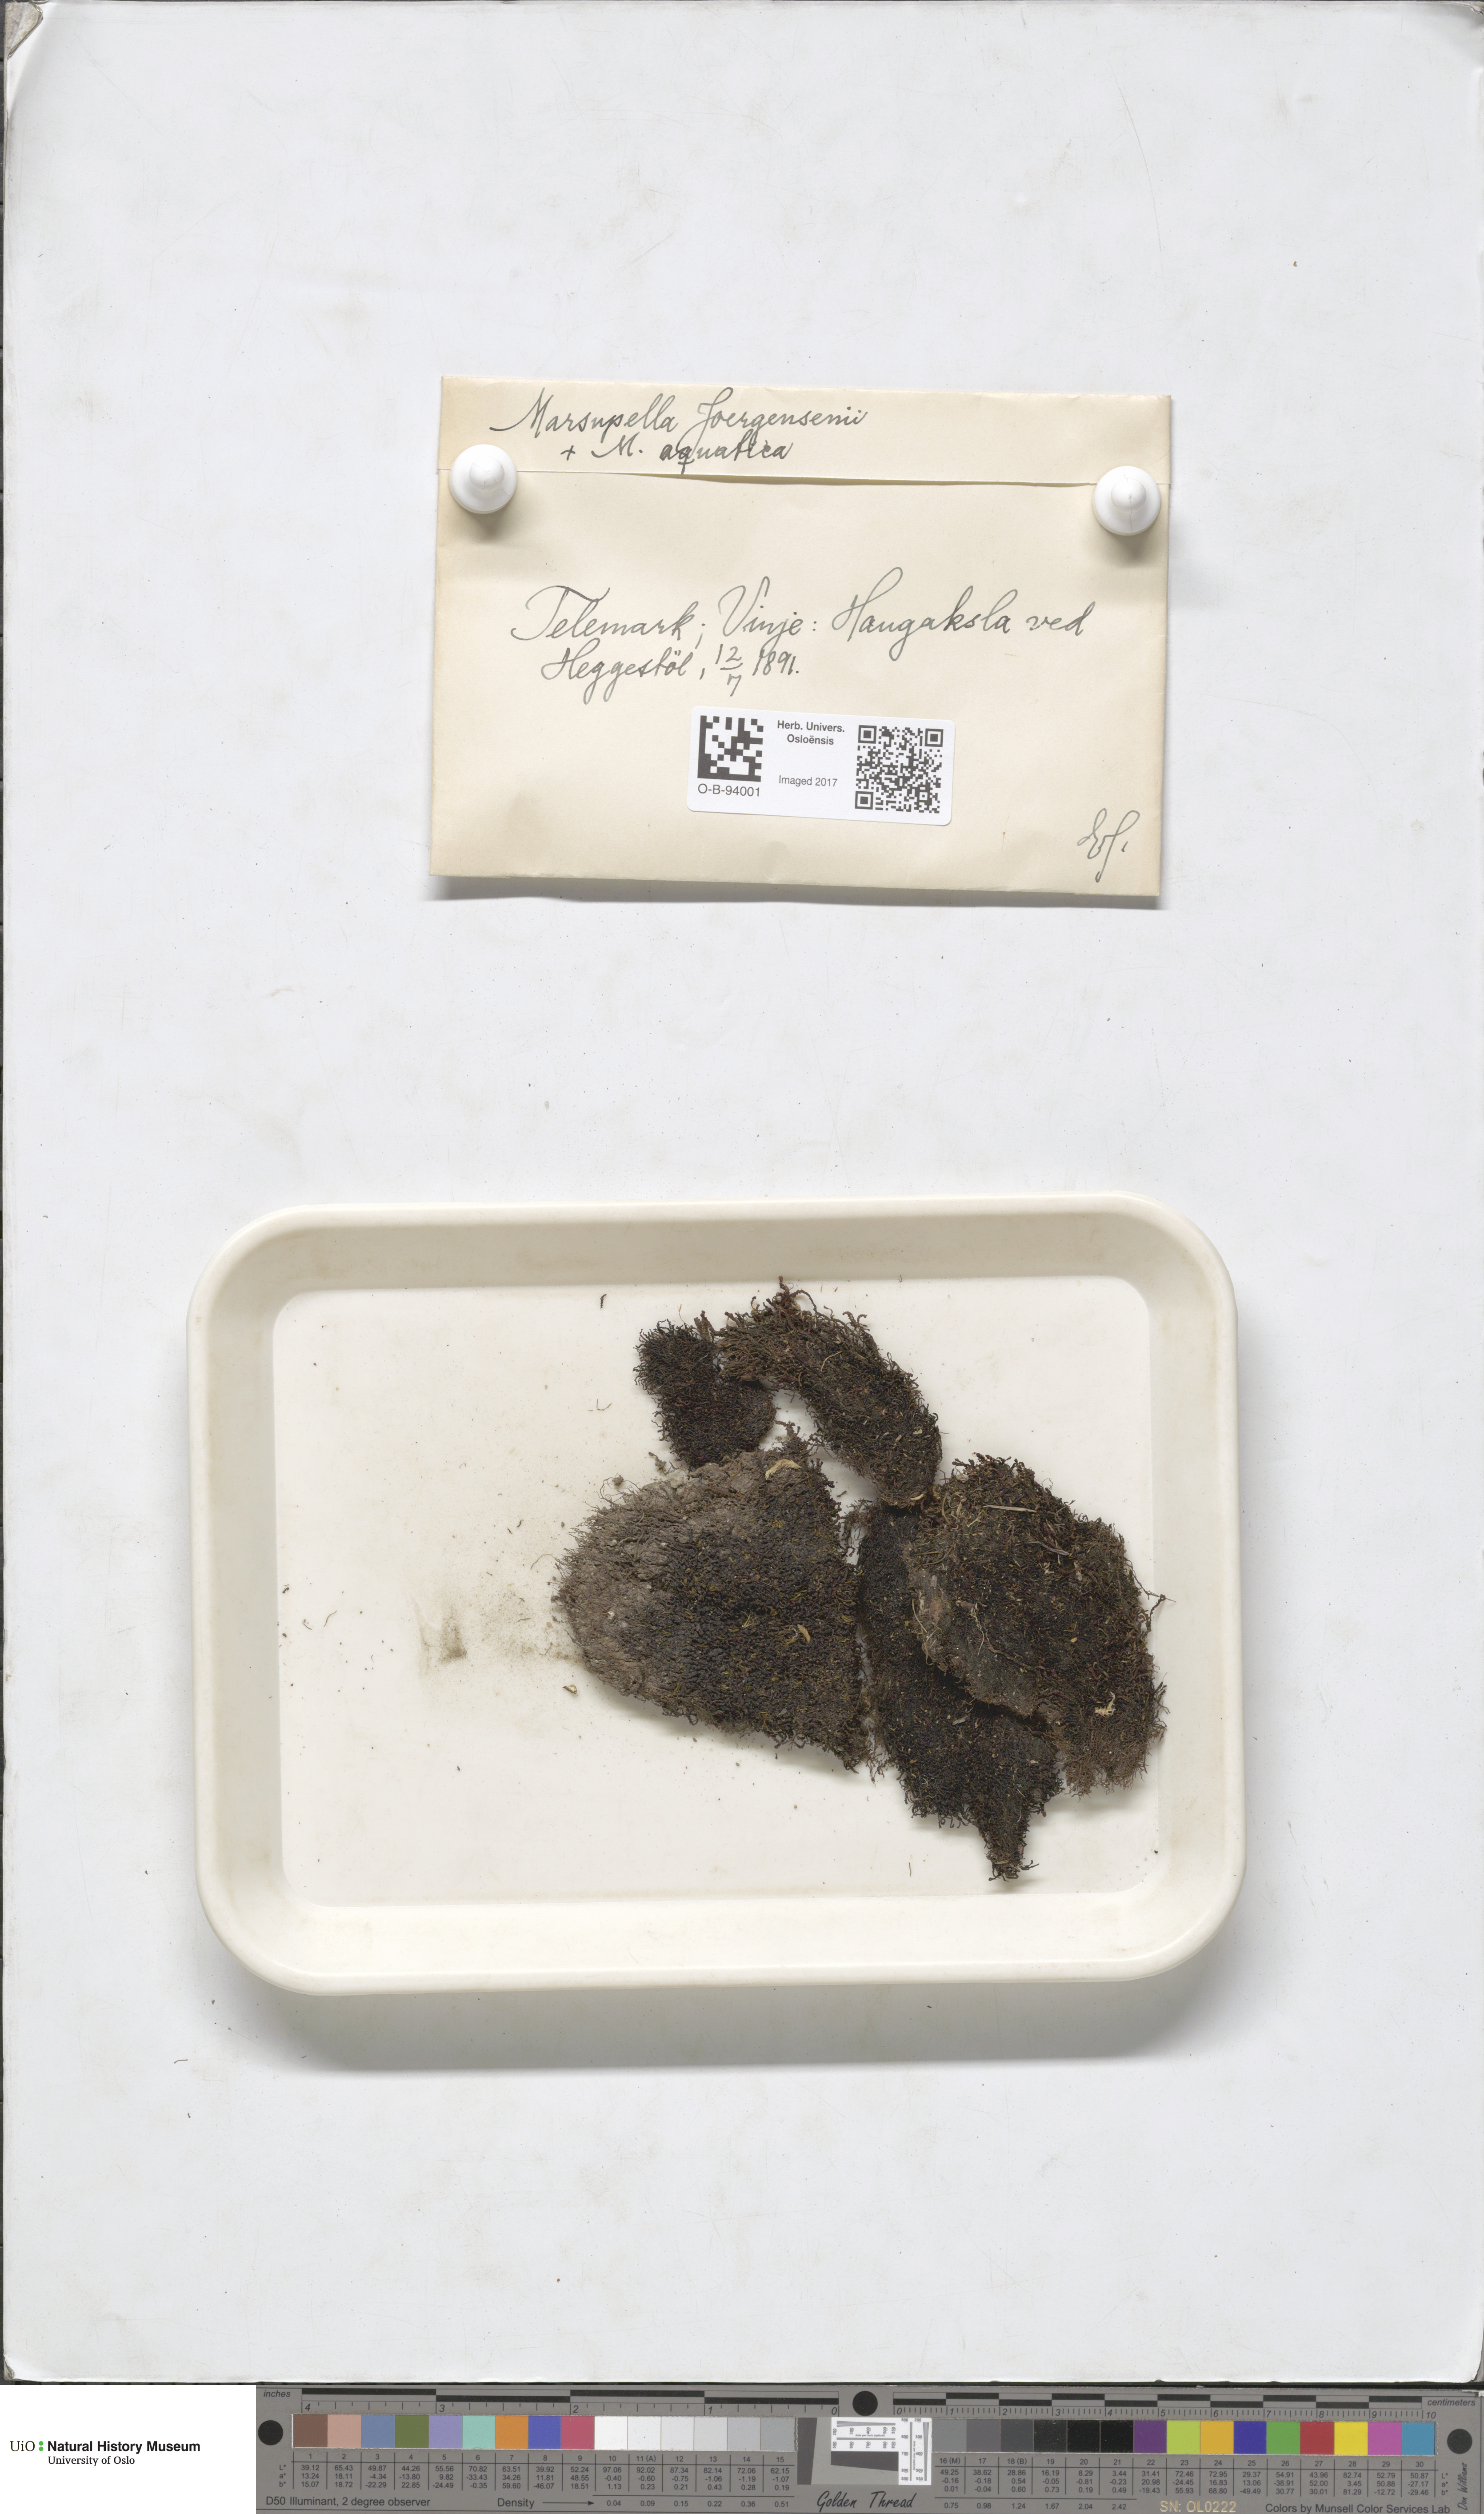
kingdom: Plantae
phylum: Marchantiophyta
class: Jungermanniopsida
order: Jungermanniales
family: Gymnomitriaceae
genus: Marsupella
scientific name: Marsupella sphacelata
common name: Speckled rustwort
